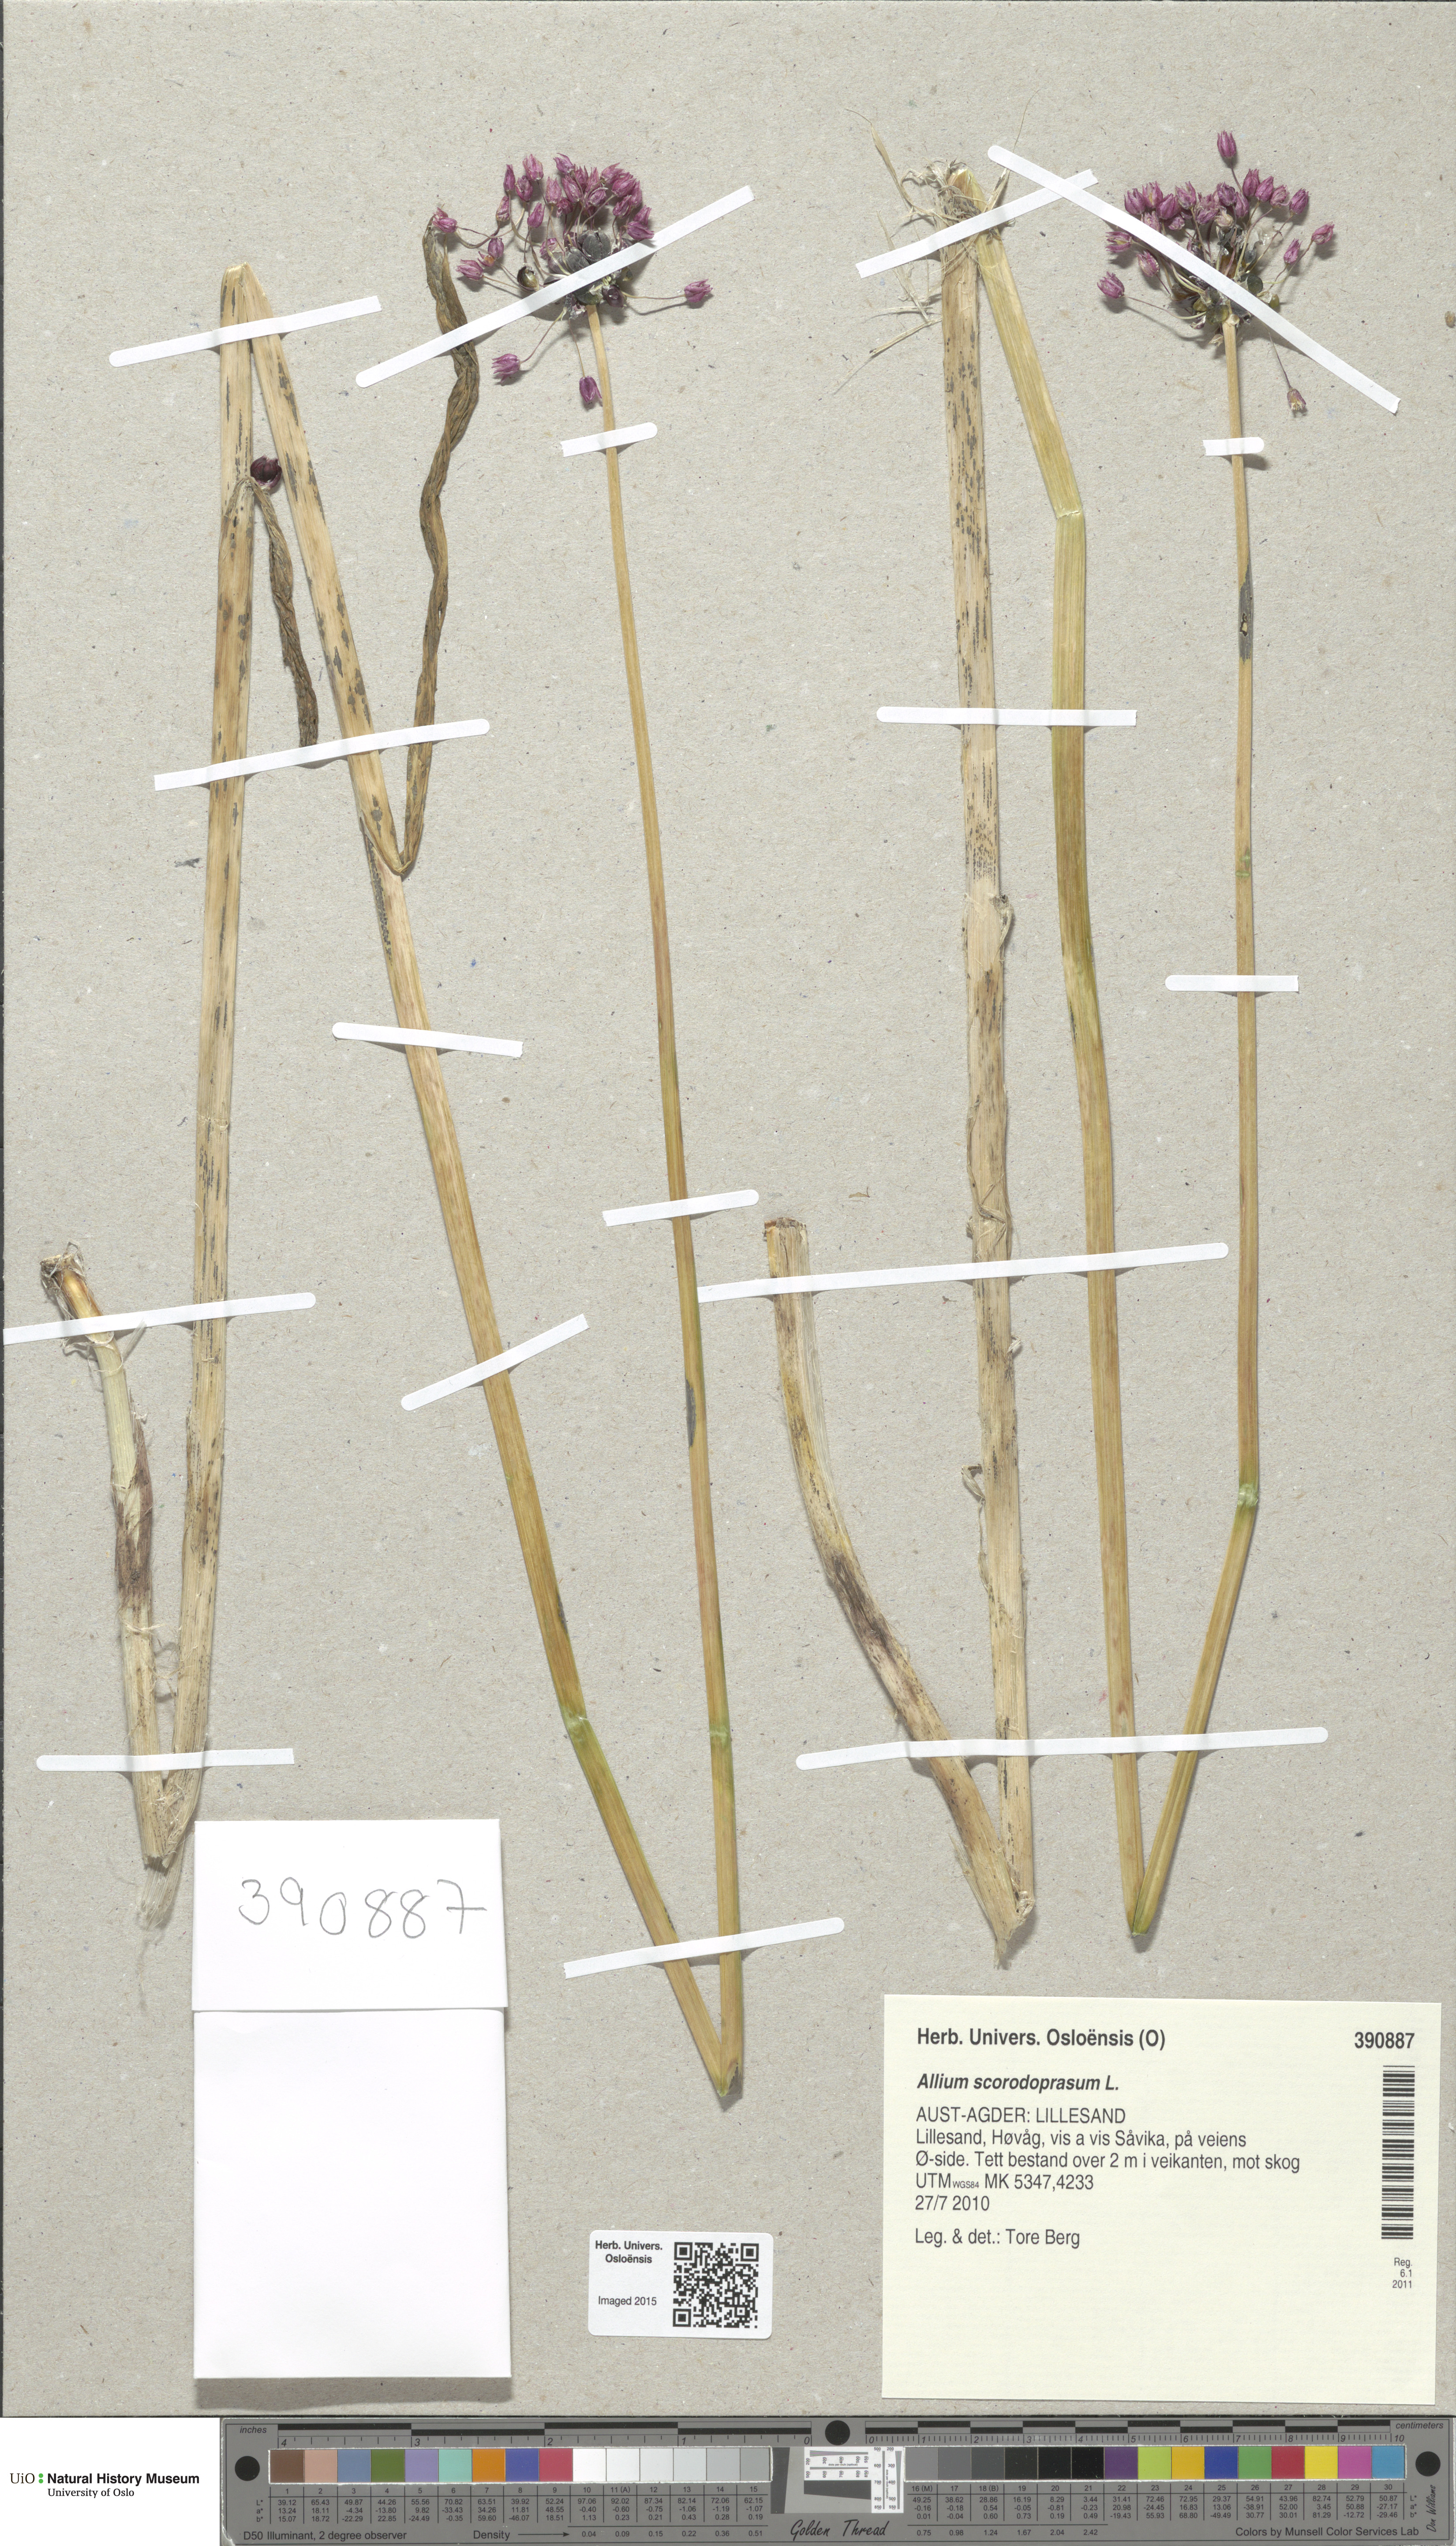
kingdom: Plantae
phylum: Tracheophyta
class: Liliopsida
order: Asparagales
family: Amaryllidaceae
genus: Allium
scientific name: Allium scorodoprasum
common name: Sand leek
